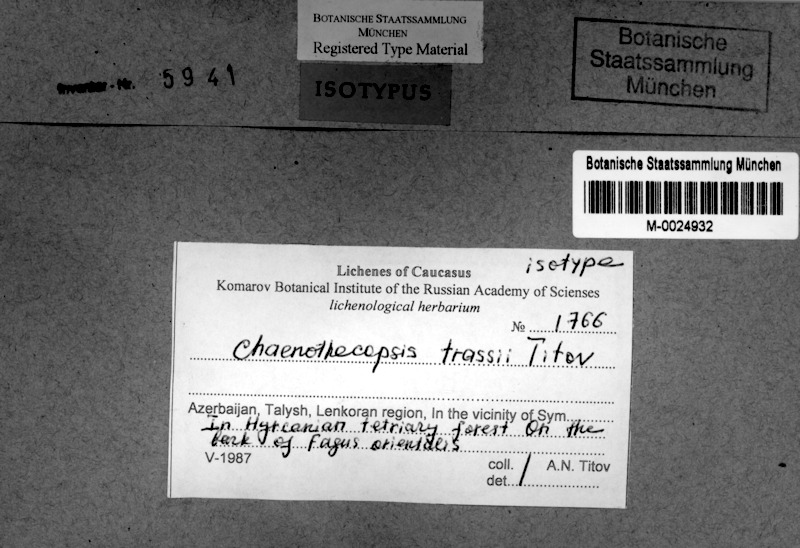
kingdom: Fungi
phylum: Ascomycota
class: Eurotiomycetes
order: Mycocaliciales
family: Mycocaliciaceae
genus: Chaenothecopsis
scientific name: Chaenothecopsis
